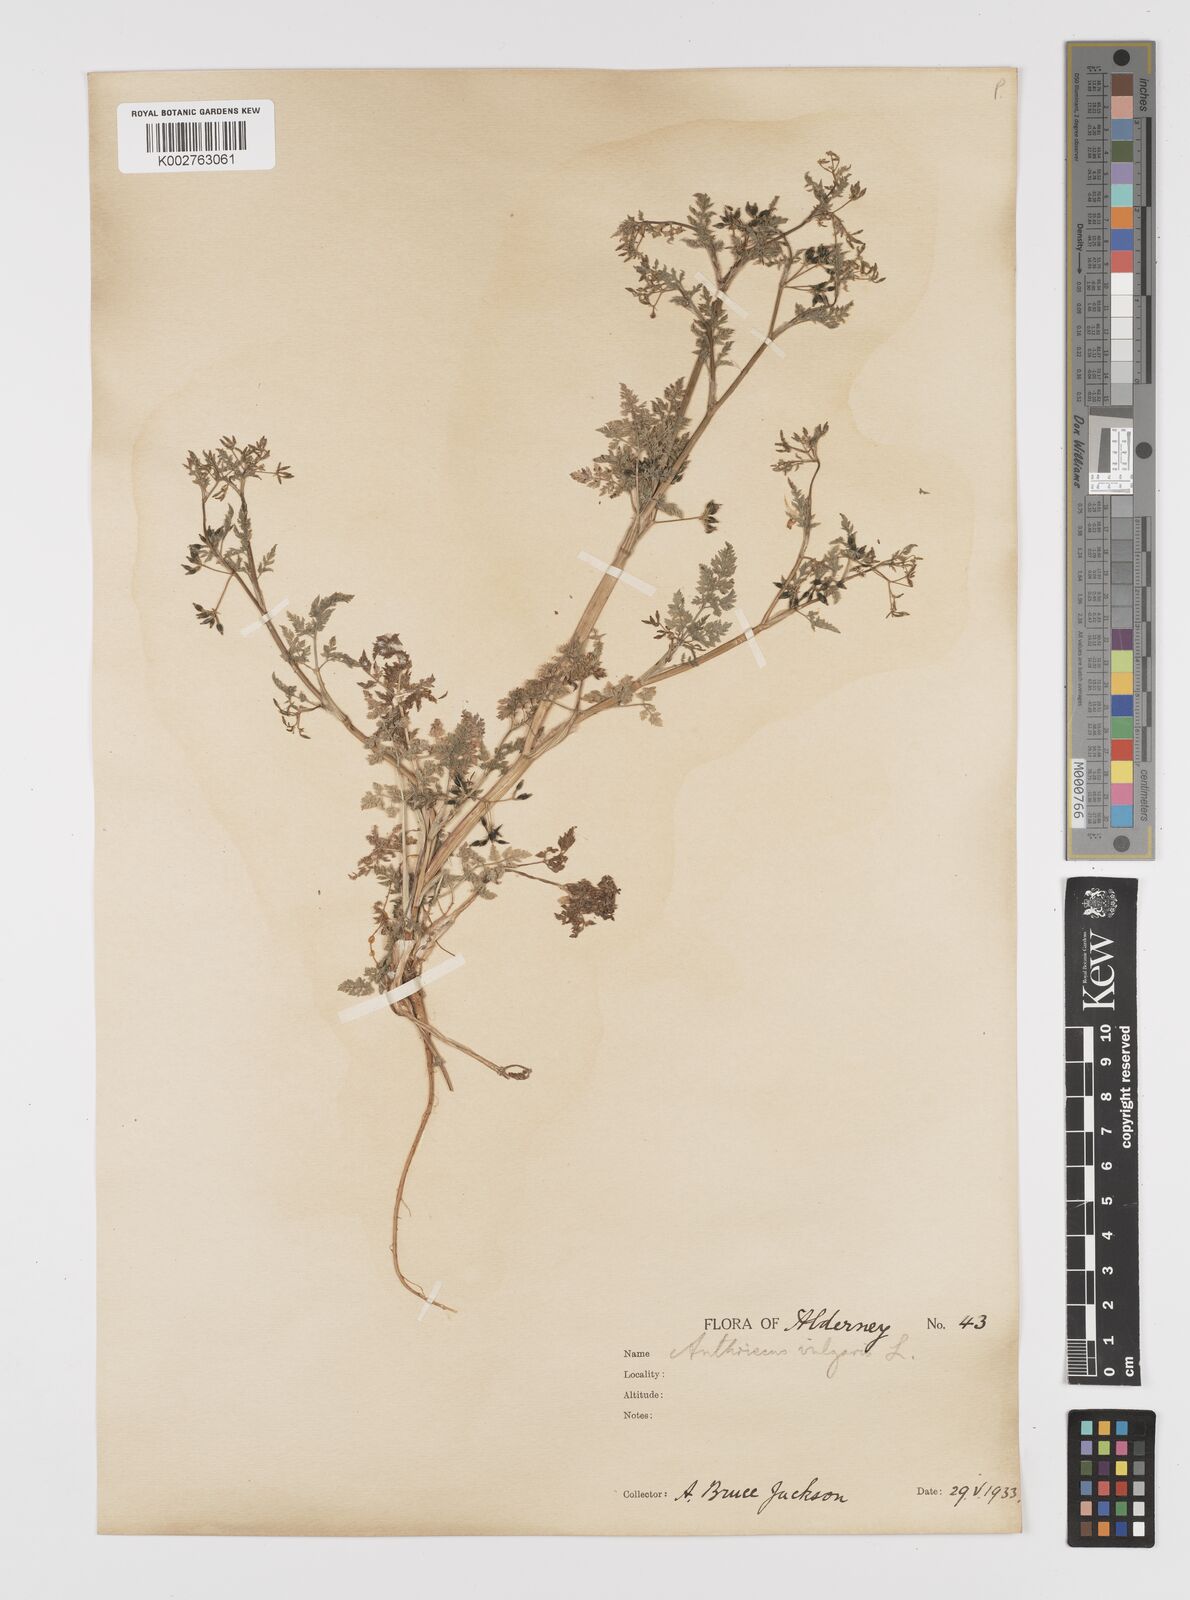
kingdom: Plantae
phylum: Tracheophyta
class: Magnoliopsida
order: Apiales
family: Apiaceae
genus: Anthriscus
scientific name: Anthriscus caucalis
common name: Bur chervil
